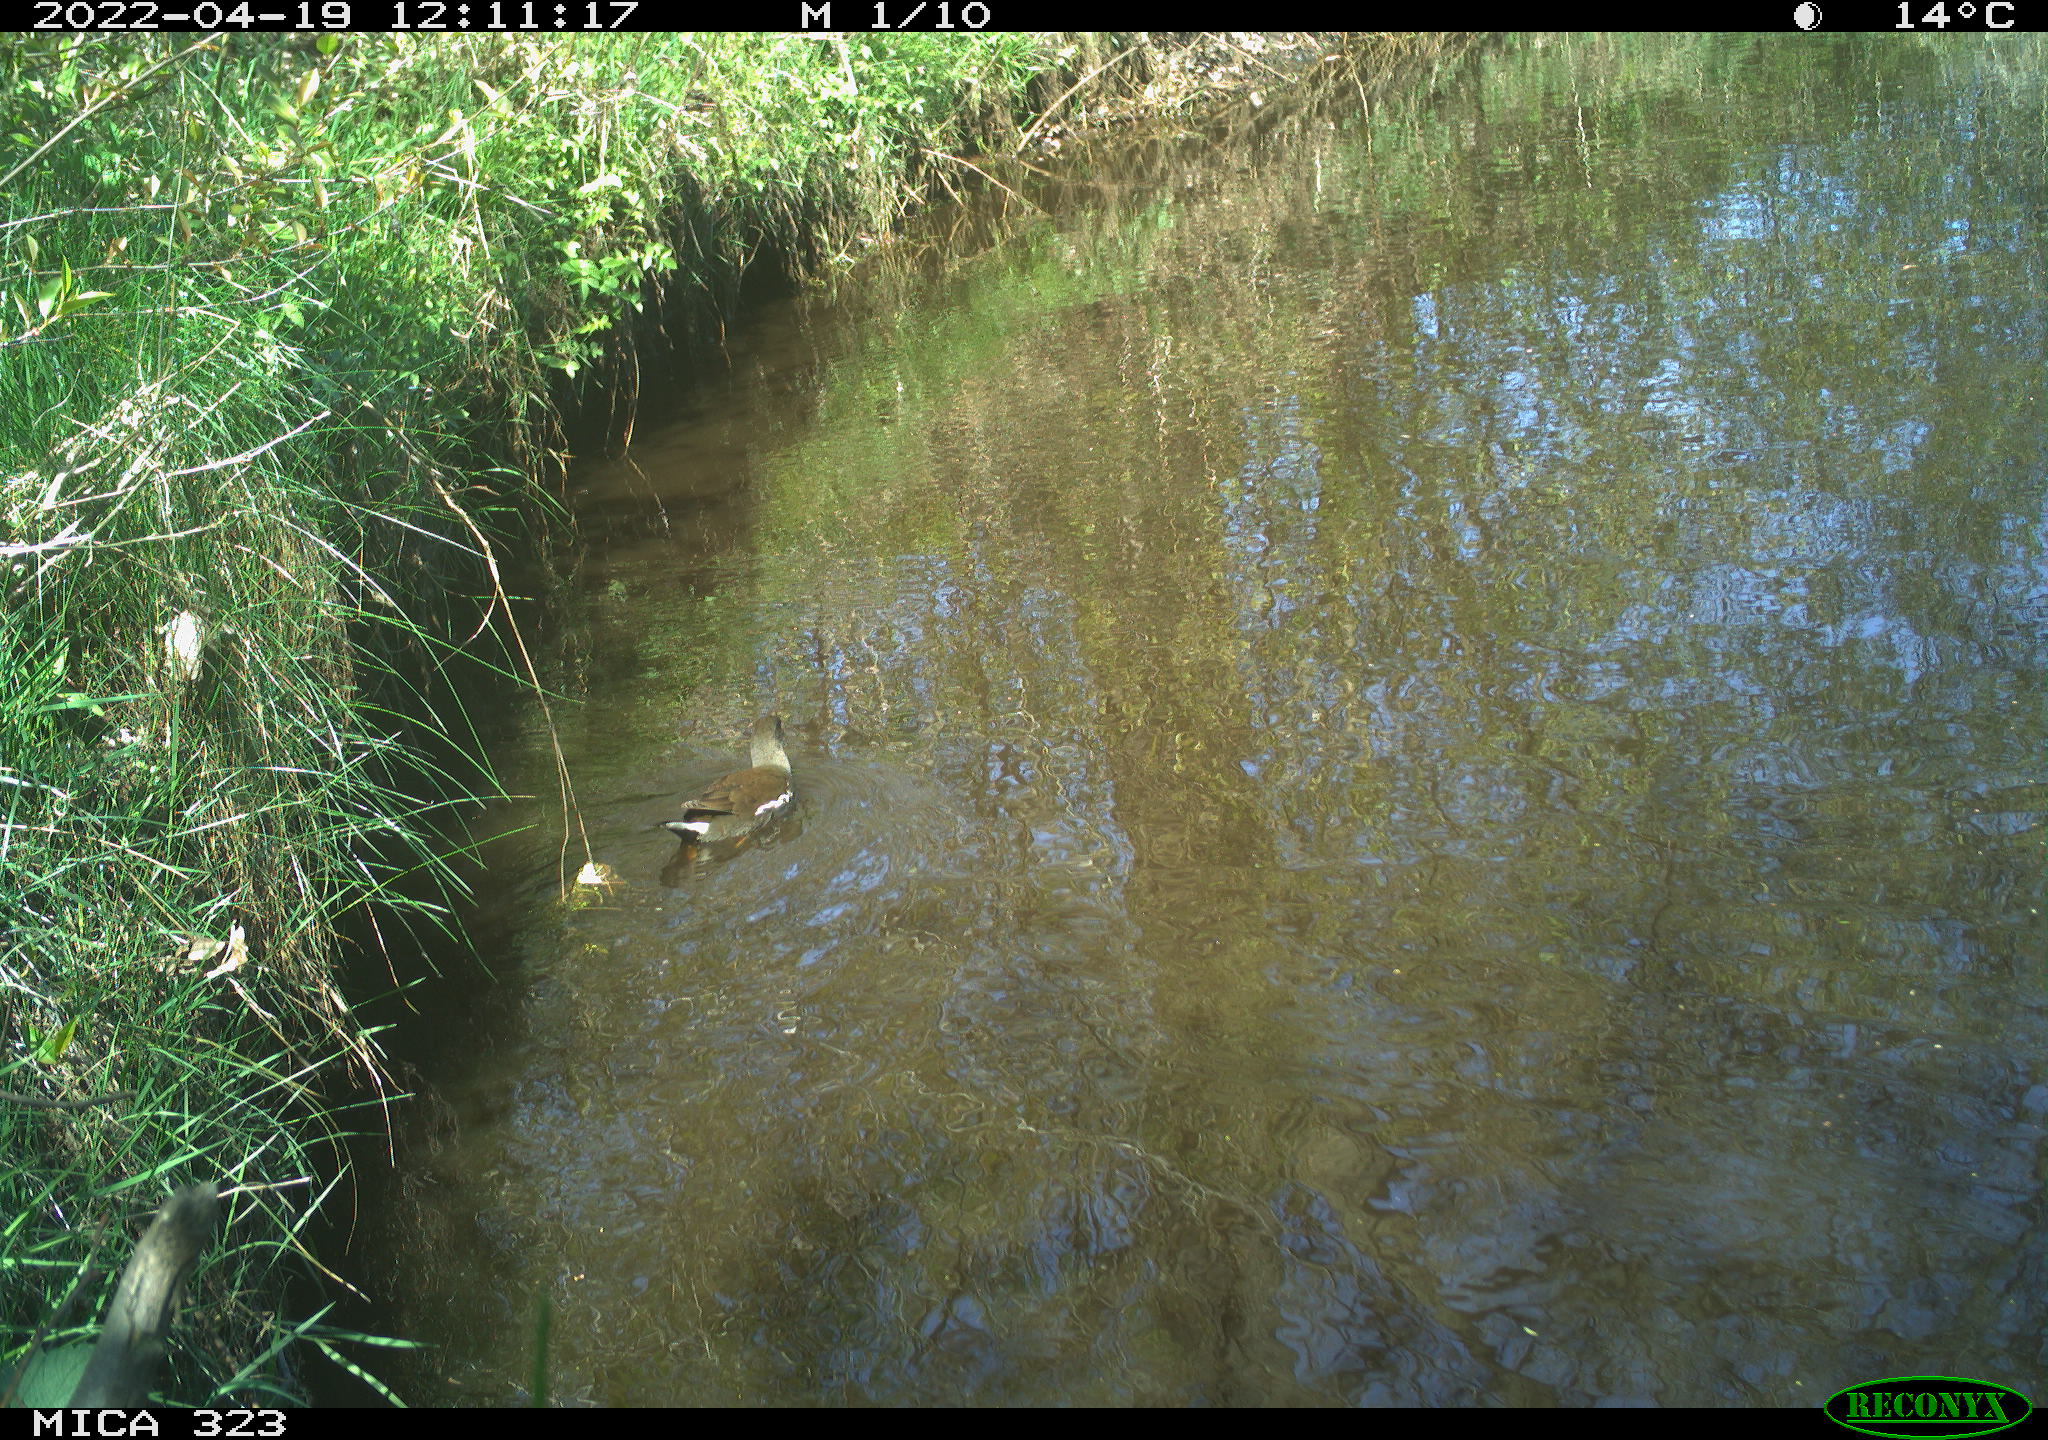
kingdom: Animalia
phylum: Chordata
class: Aves
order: Gruiformes
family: Rallidae
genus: Gallinula
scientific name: Gallinula chloropus
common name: Common moorhen
